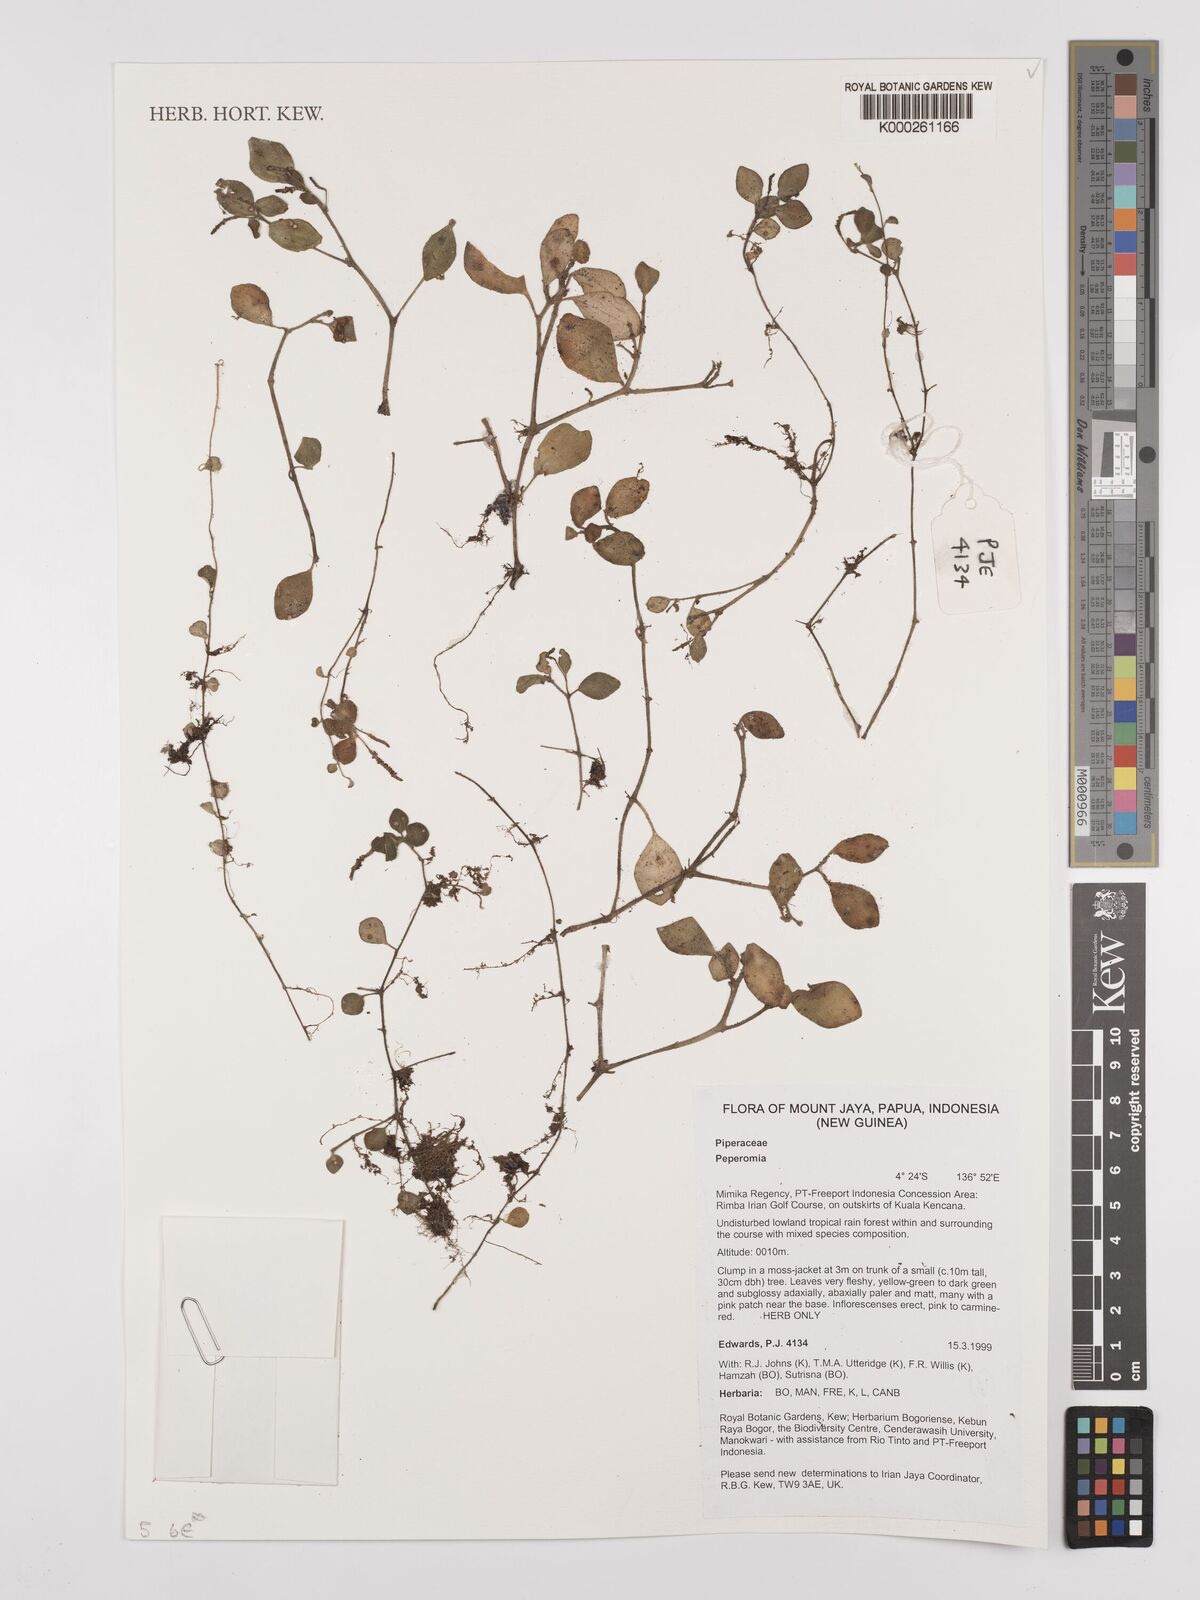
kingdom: Plantae
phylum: Tracheophyta
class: Magnoliopsida
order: Piperales
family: Piperaceae
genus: Peperomia
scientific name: Peperomia
